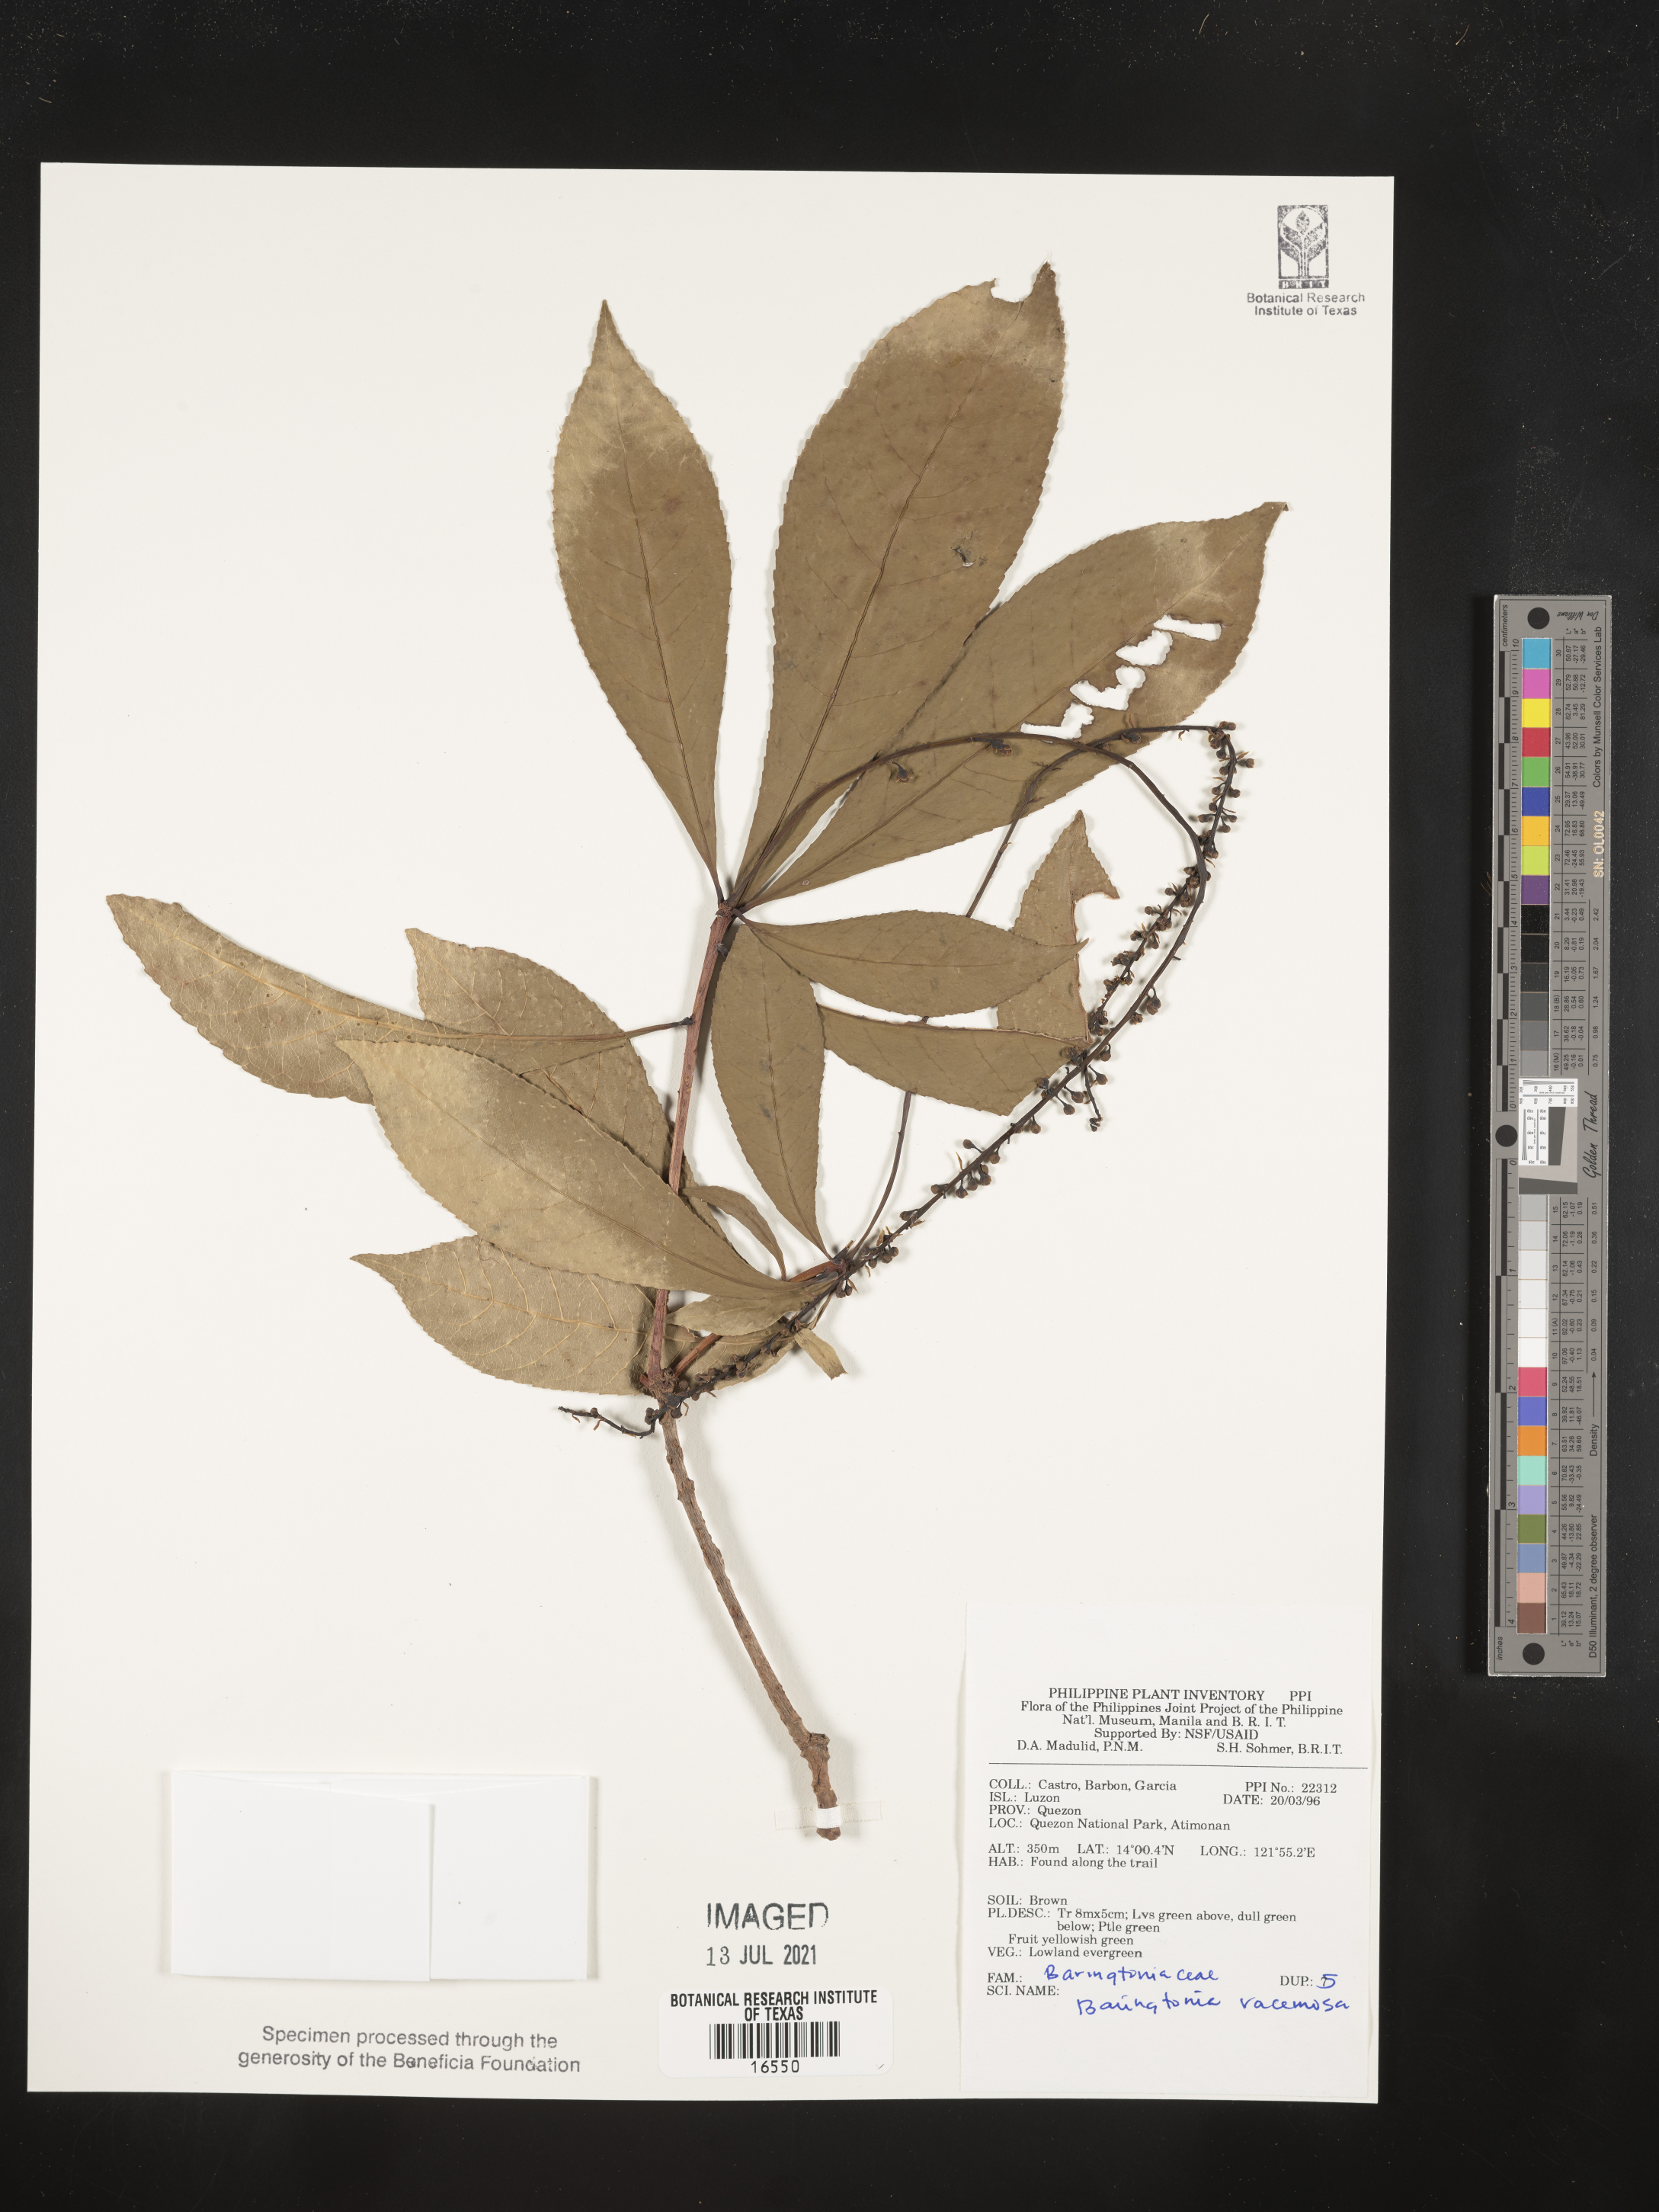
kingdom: Plantae
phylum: Tracheophyta
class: Magnoliopsida
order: Ericales
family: Lecythidaceae
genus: Barringtonia
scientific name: Barringtonia racemosa
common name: Brackwater mangrove
